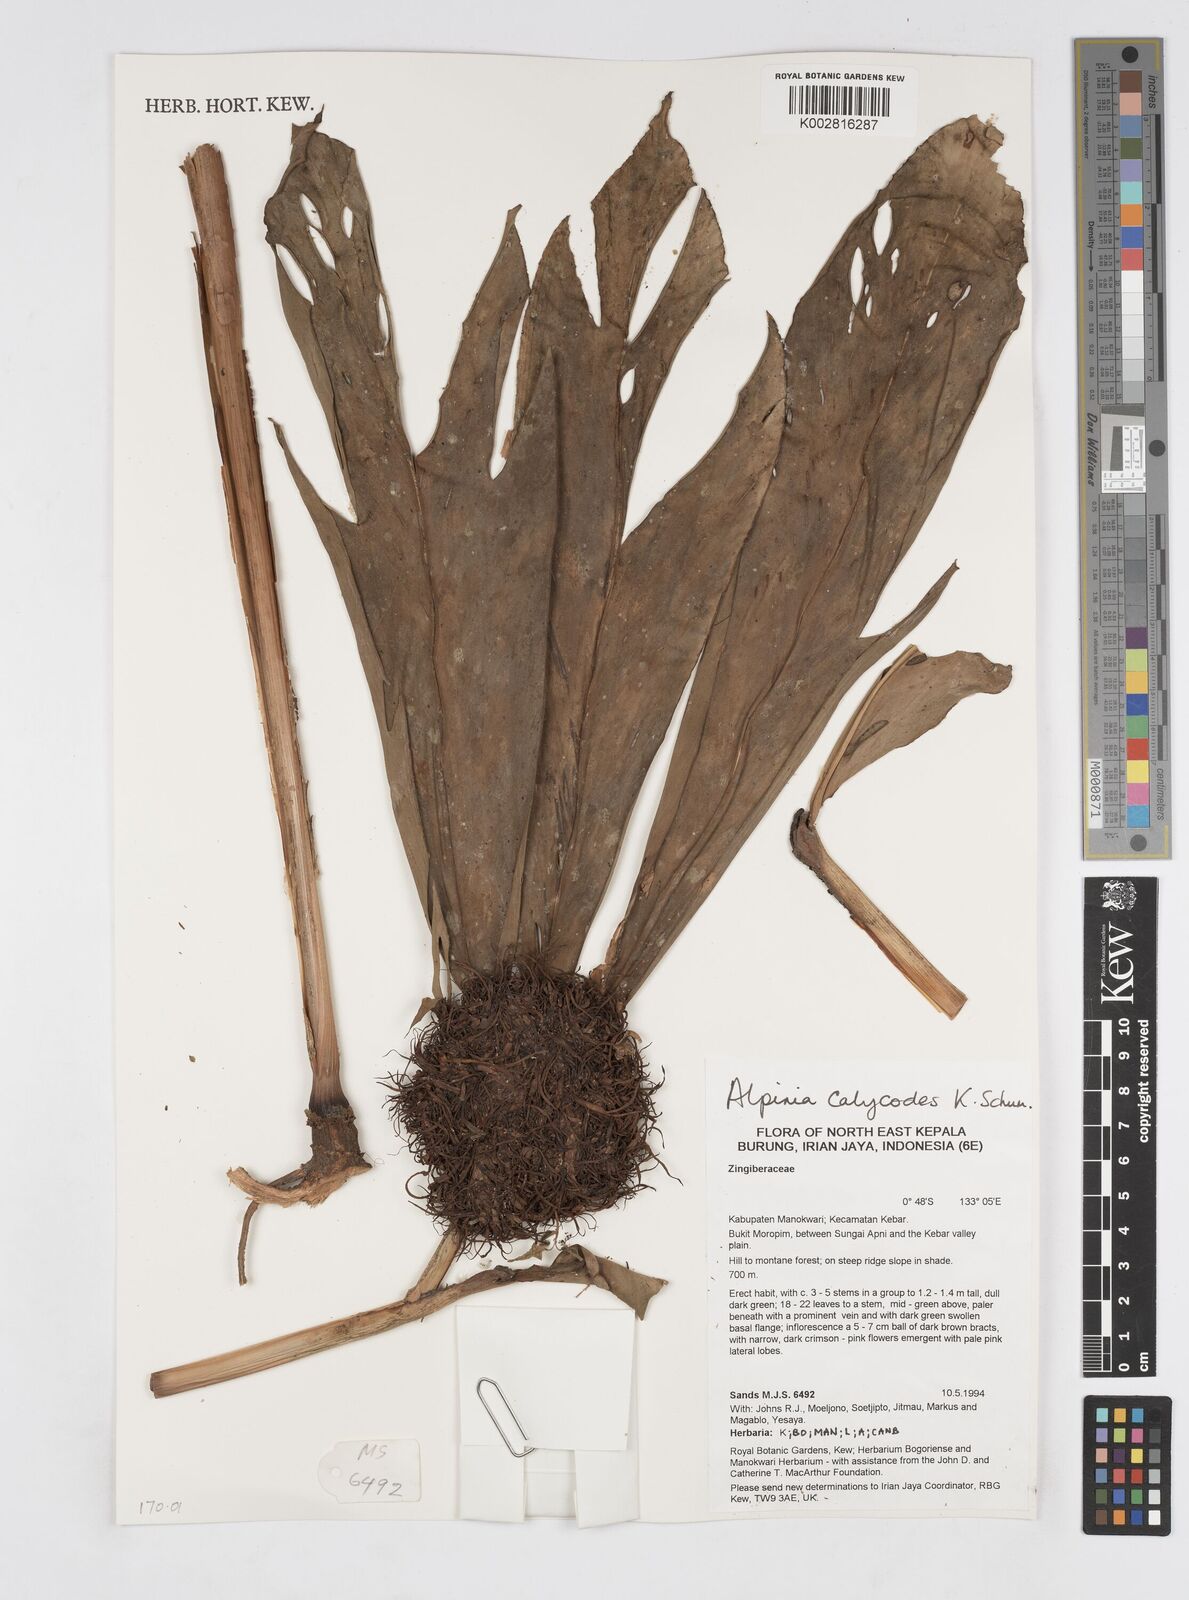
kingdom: Plantae
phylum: Tracheophyta
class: Liliopsida
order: Zingiberales
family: Zingiberaceae
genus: Alpinia
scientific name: Alpinia calycodes
